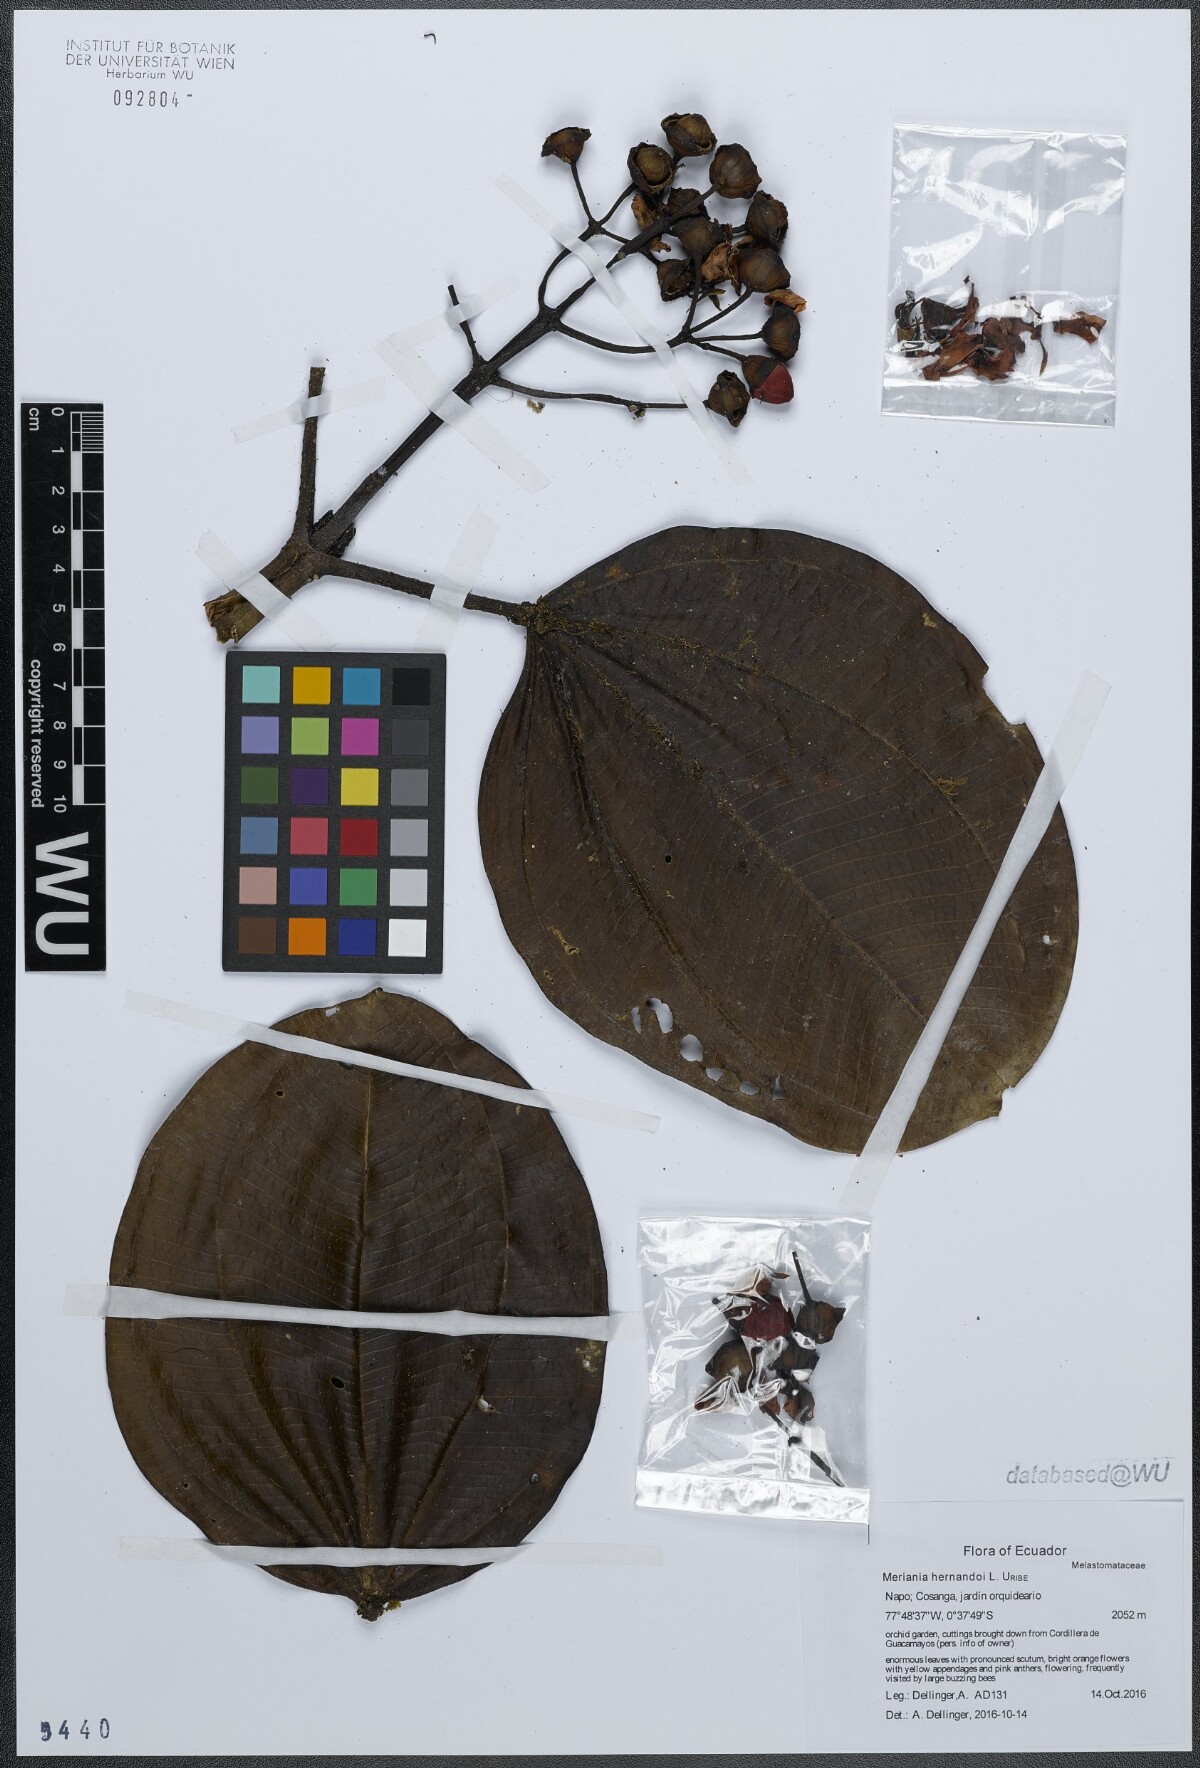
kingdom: Plantae
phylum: Tracheophyta
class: Magnoliopsida
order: Myrtales
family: Melastomataceae
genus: Meriania
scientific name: Meriania hernandoi
